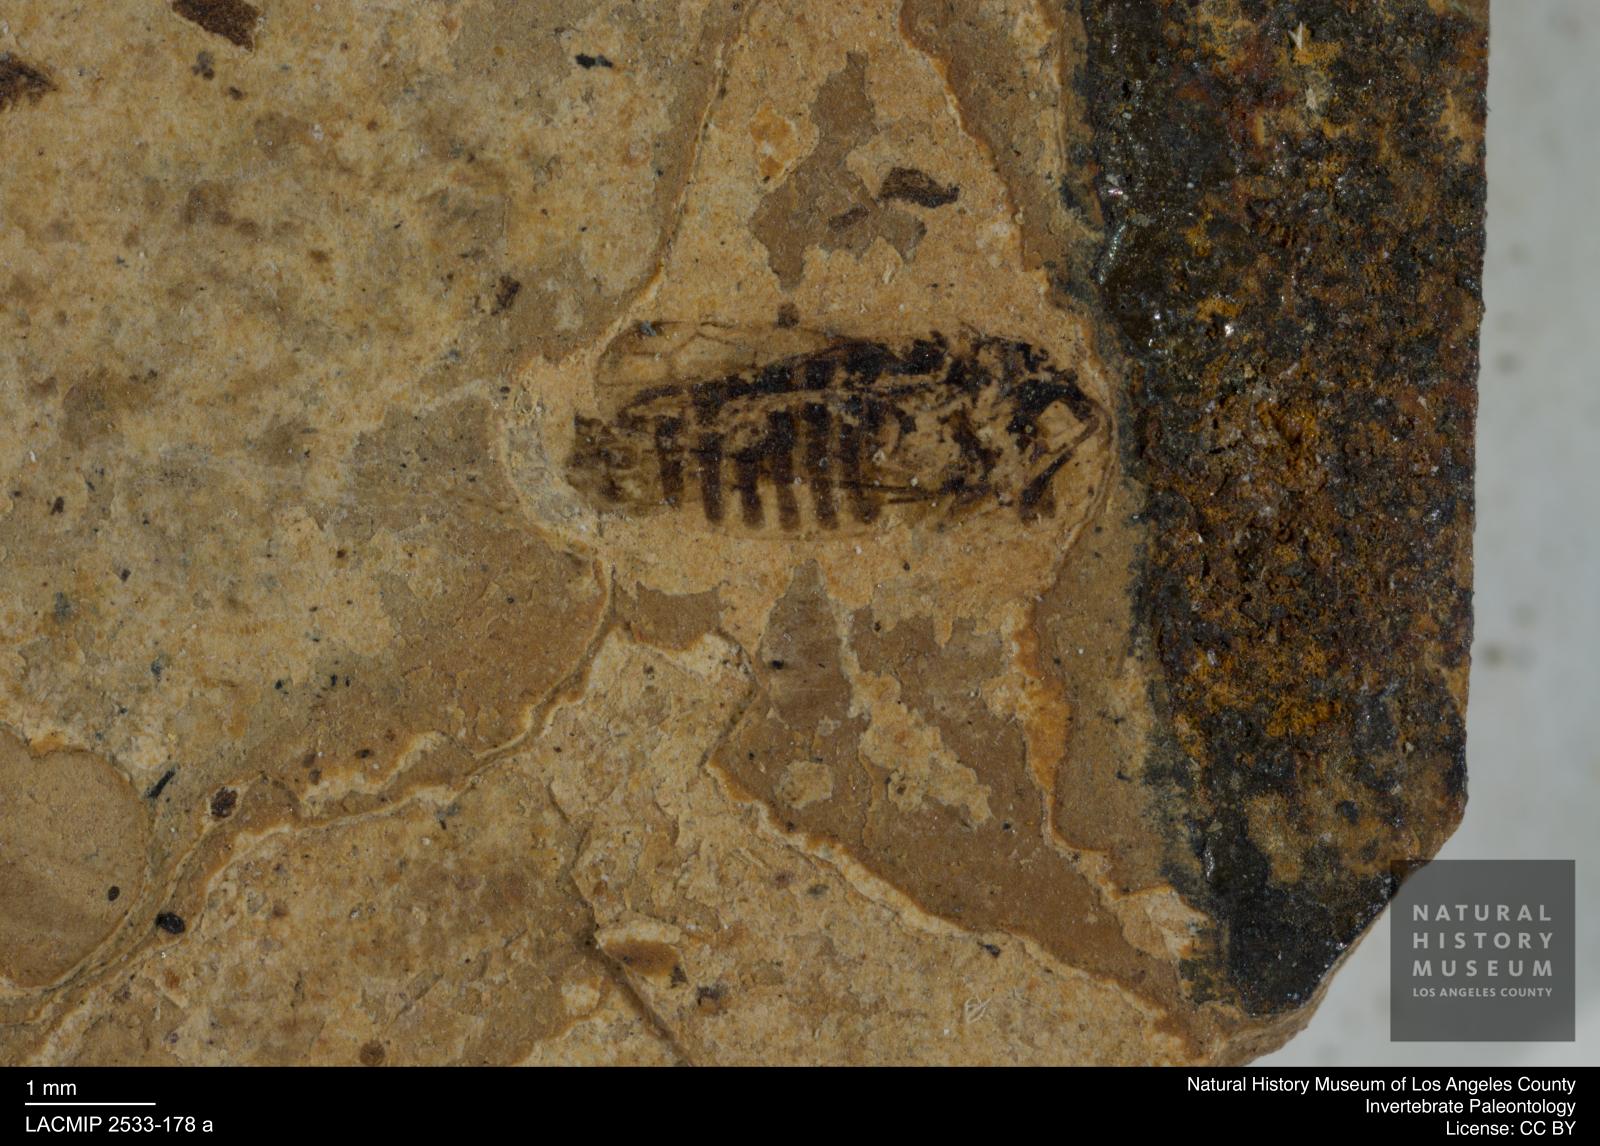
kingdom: Animalia
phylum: Arthropoda
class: Insecta
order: Hemiptera
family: Cicadellidae
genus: Macropsis
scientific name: Macropsis pectoralis
